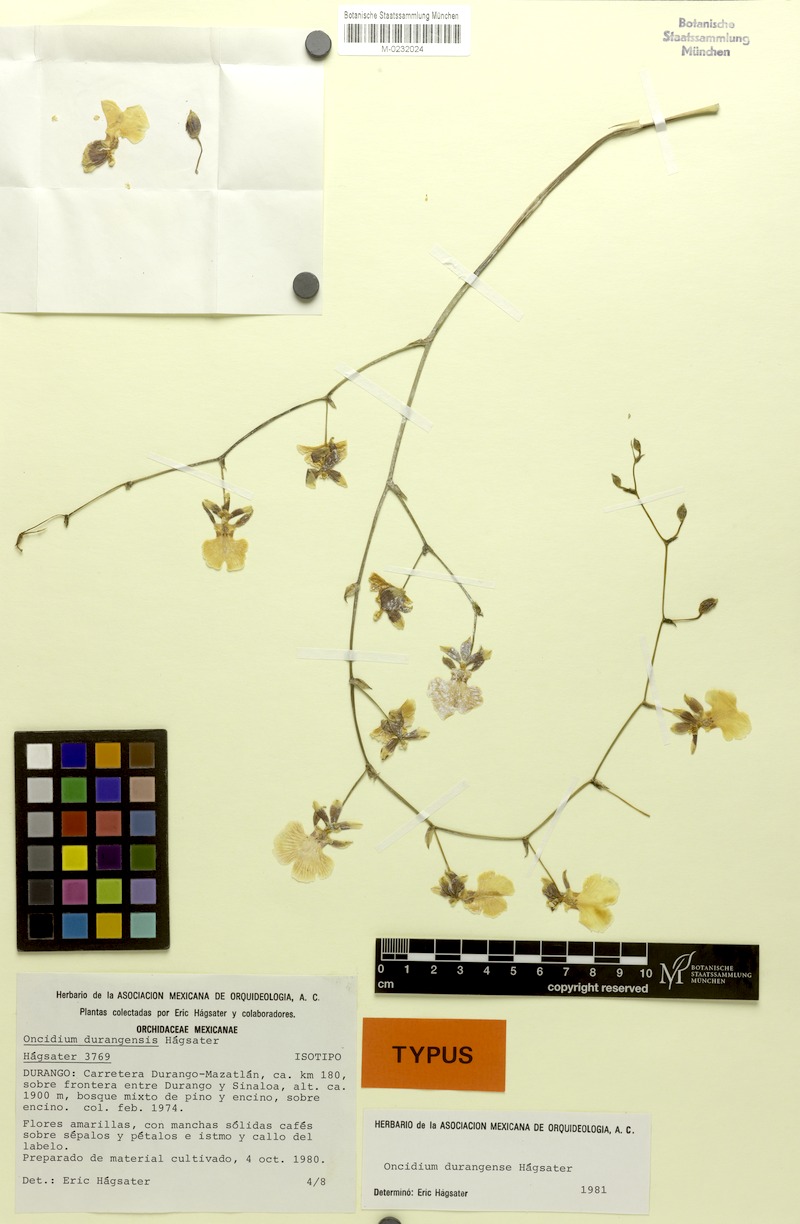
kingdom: Plantae
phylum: Tracheophyta
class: Liliopsida
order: Asparagales
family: Orchidaceae
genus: Oncidium
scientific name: Oncidium reflexum
